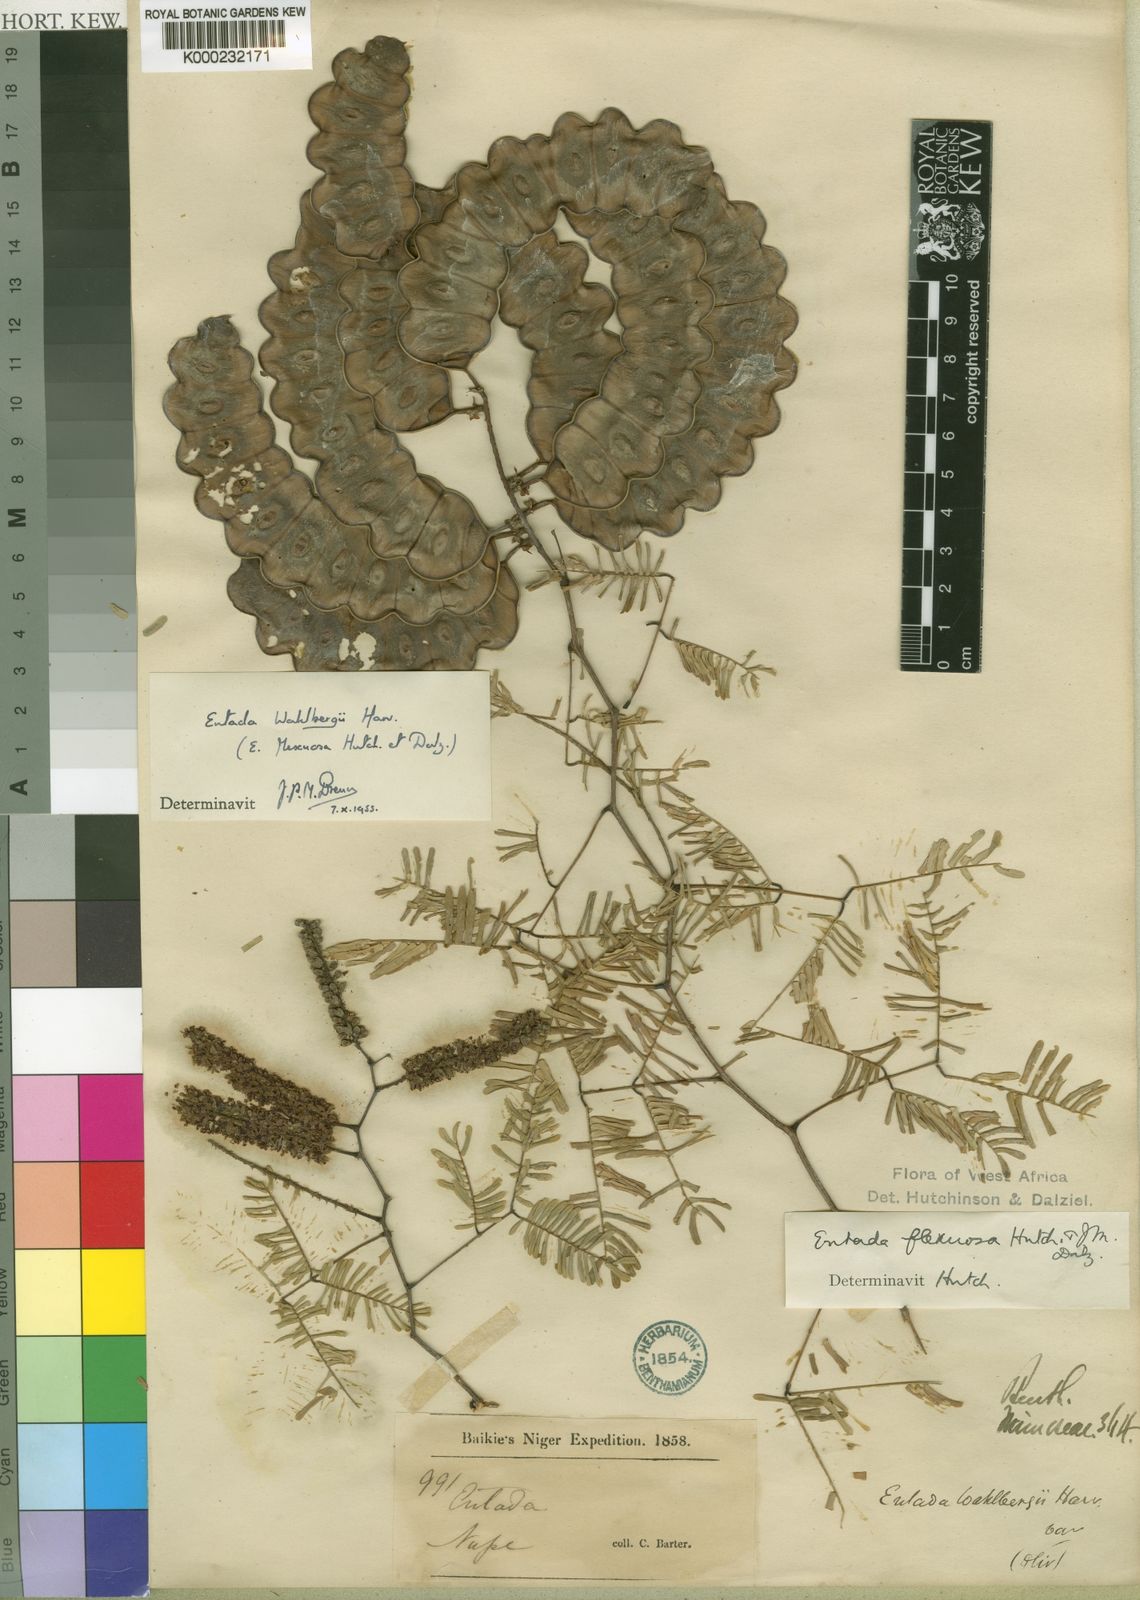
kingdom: Plantae
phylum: Tracheophyta
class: Magnoliopsida
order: Fabales
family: Fabaceae
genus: Entada
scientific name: Entada wahlbergii
